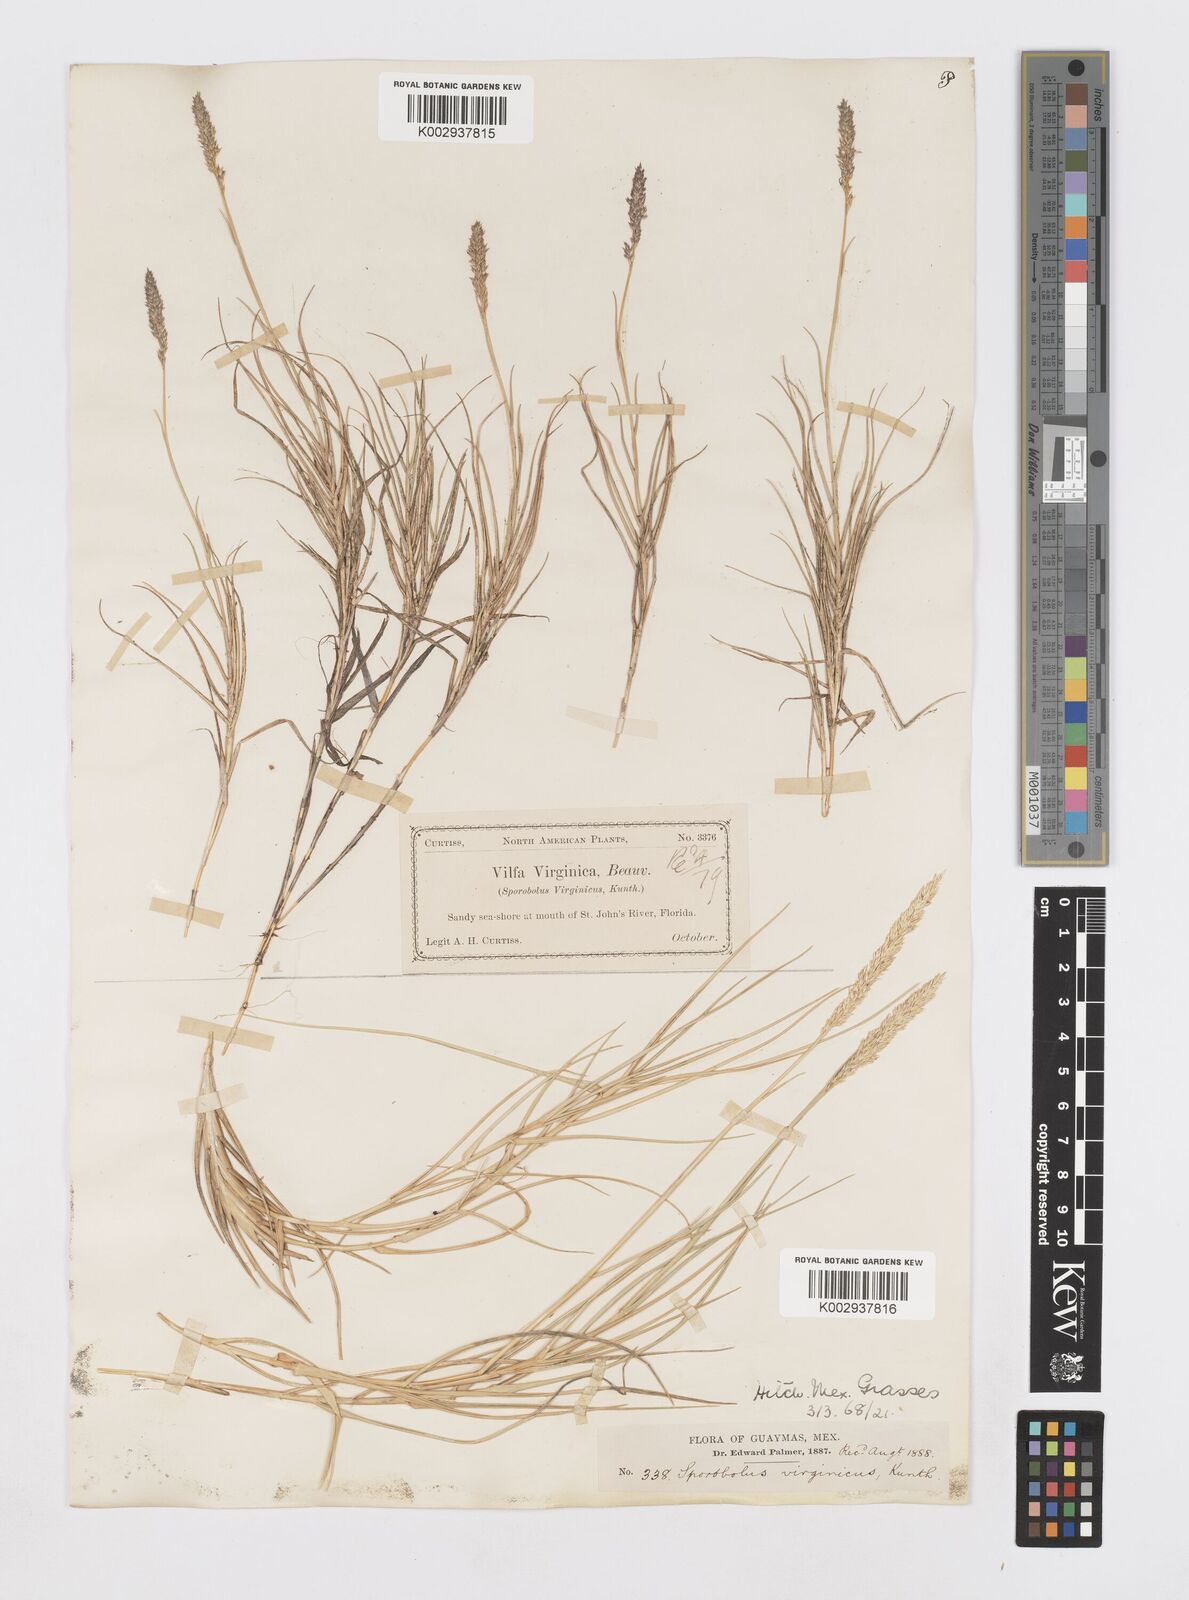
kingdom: Plantae
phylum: Tracheophyta
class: Liliopsida
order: Poales
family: Poaceae
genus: Sporobolus
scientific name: Sporobolus virginicus
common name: Beach dropseed
